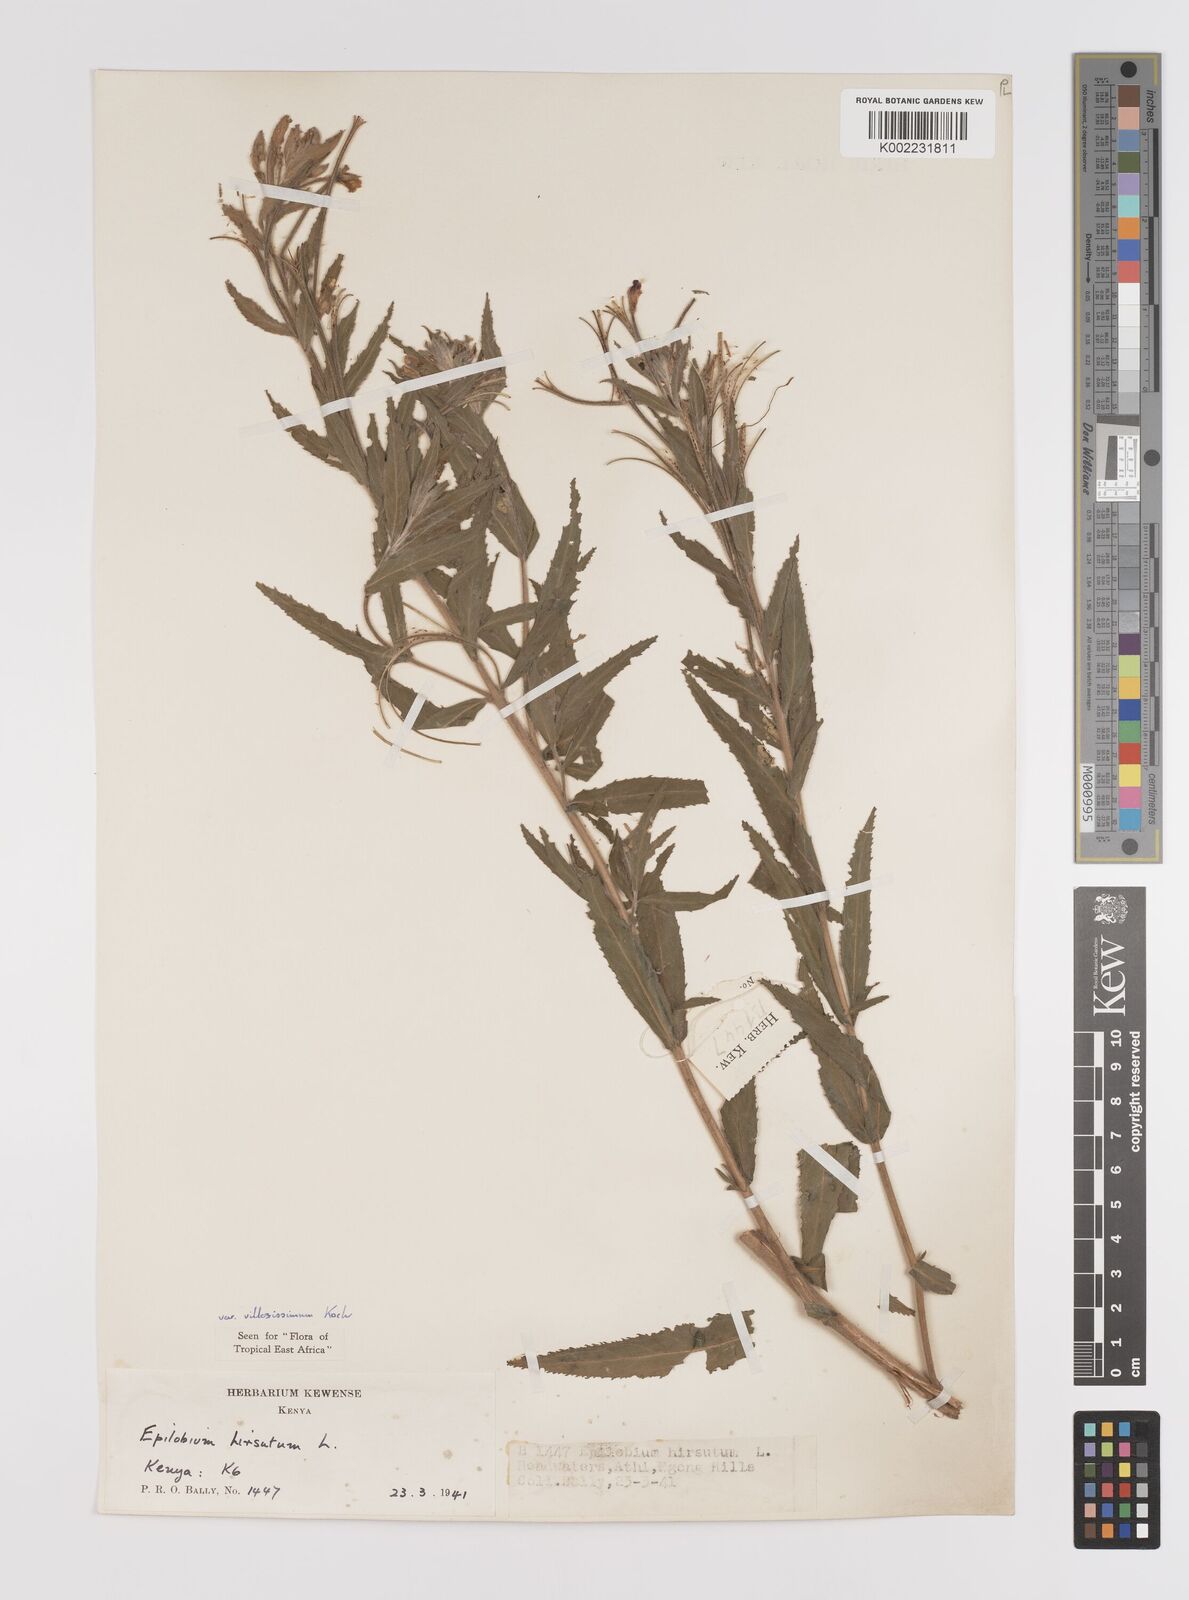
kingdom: Plantae
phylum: Tracheophyta
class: Magnoliopsida
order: Myrtales
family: Onagraceae
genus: Epilobium
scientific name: Epilobium hirsutum
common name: Great willowherb
